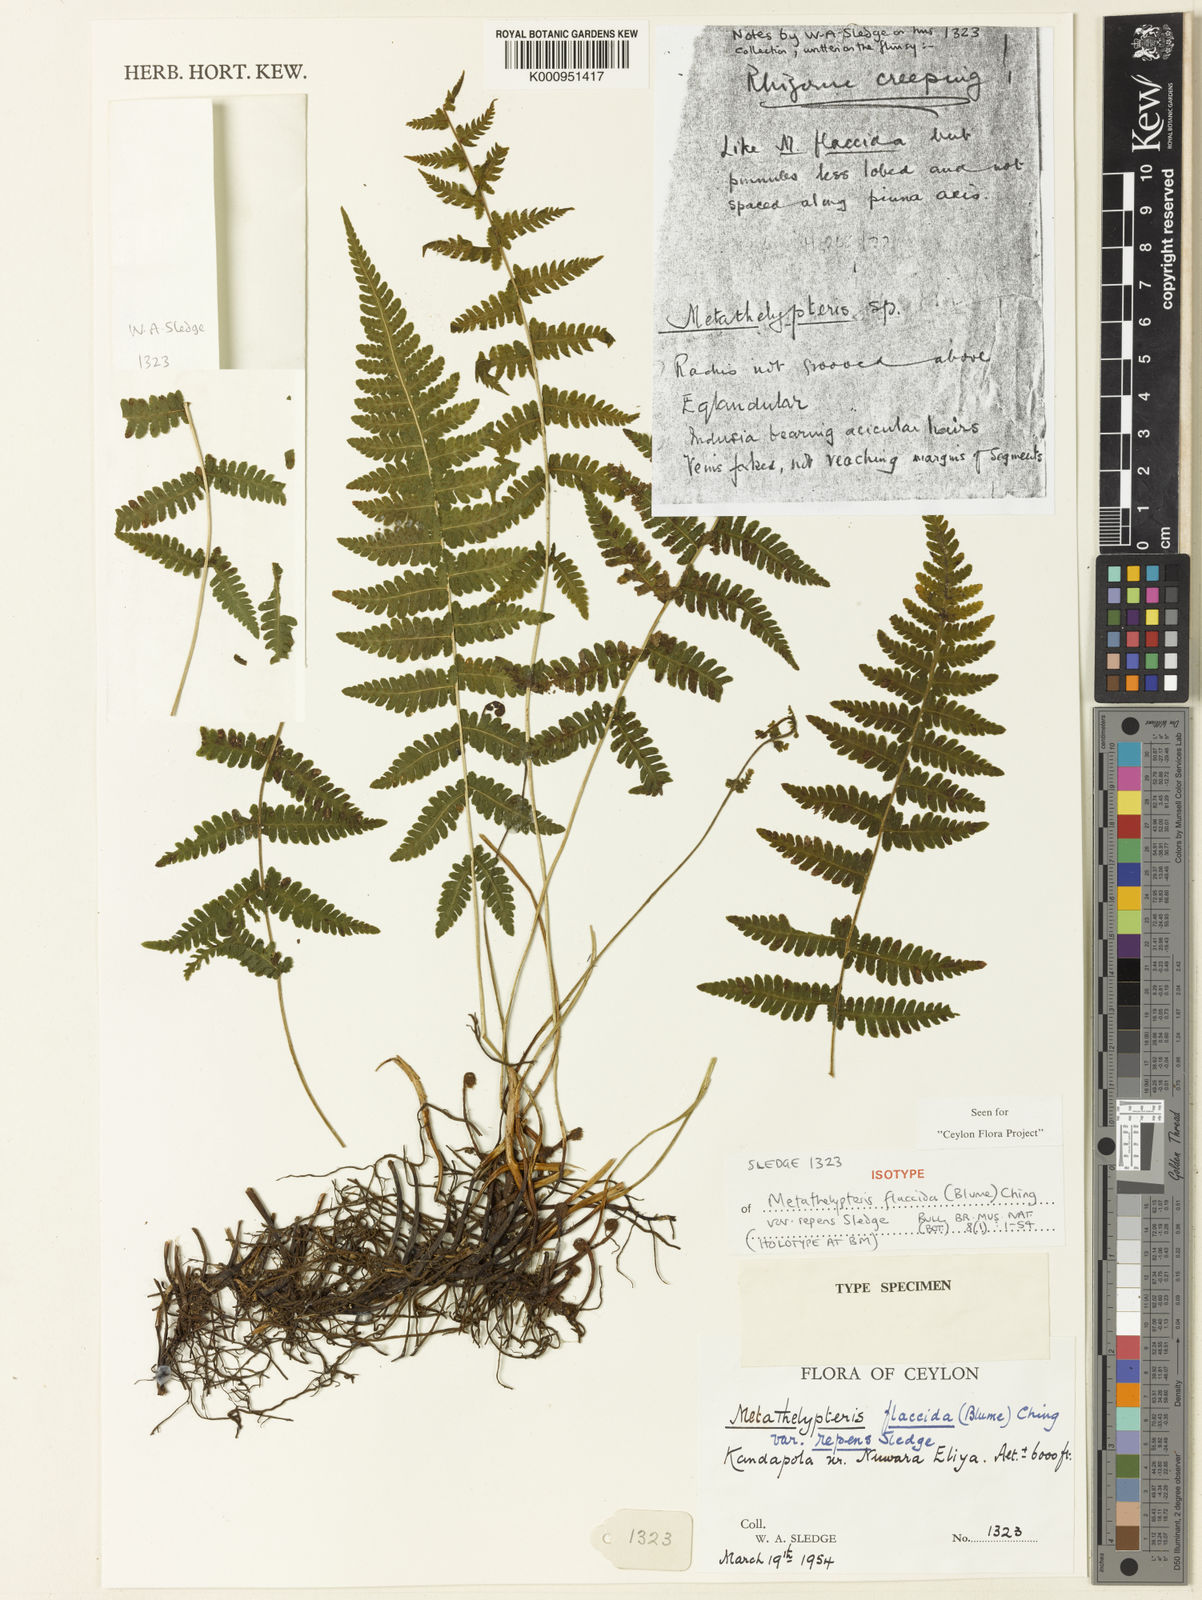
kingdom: Plantae
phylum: Tracheophyta
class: Polypodiopsida
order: Polypodiales
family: Thelypteridaceae
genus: Metathelypteris
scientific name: Metathelypteris flaccida
